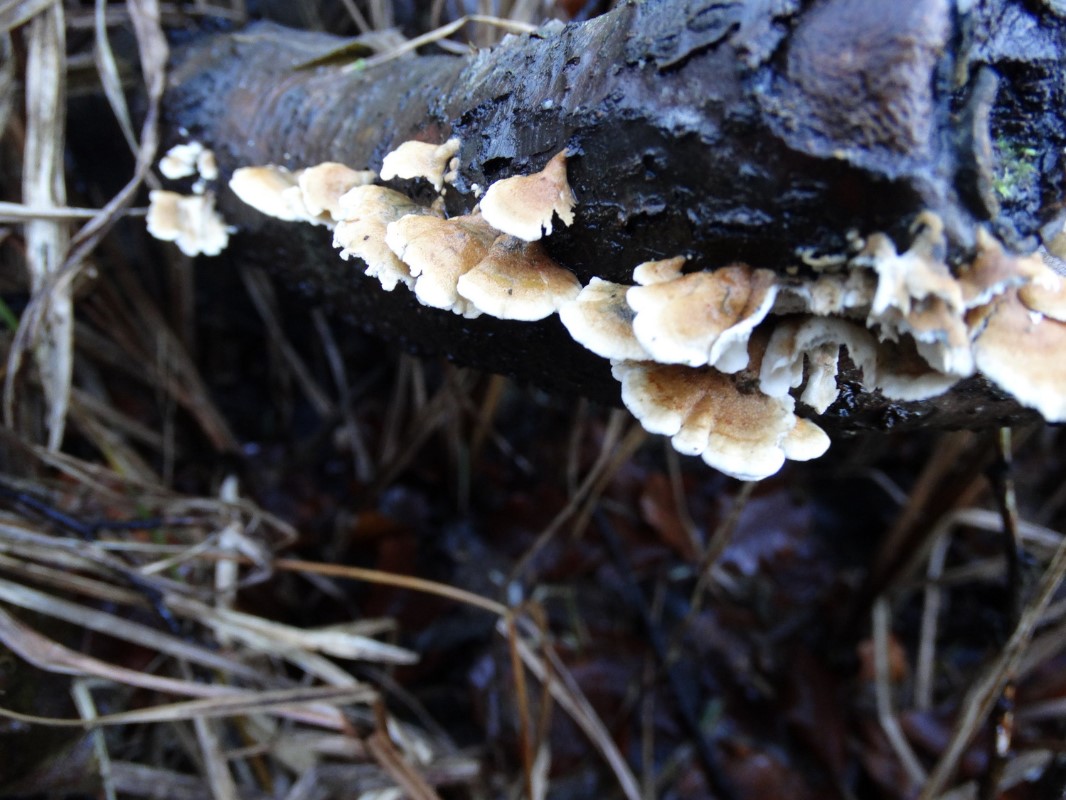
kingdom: Fungi
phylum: Basidiomycota
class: Agaricomycetes
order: Amylocorticiales
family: Amylocorticiaceae
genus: Plicaturopsis
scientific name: Plicaturopsis crispa
